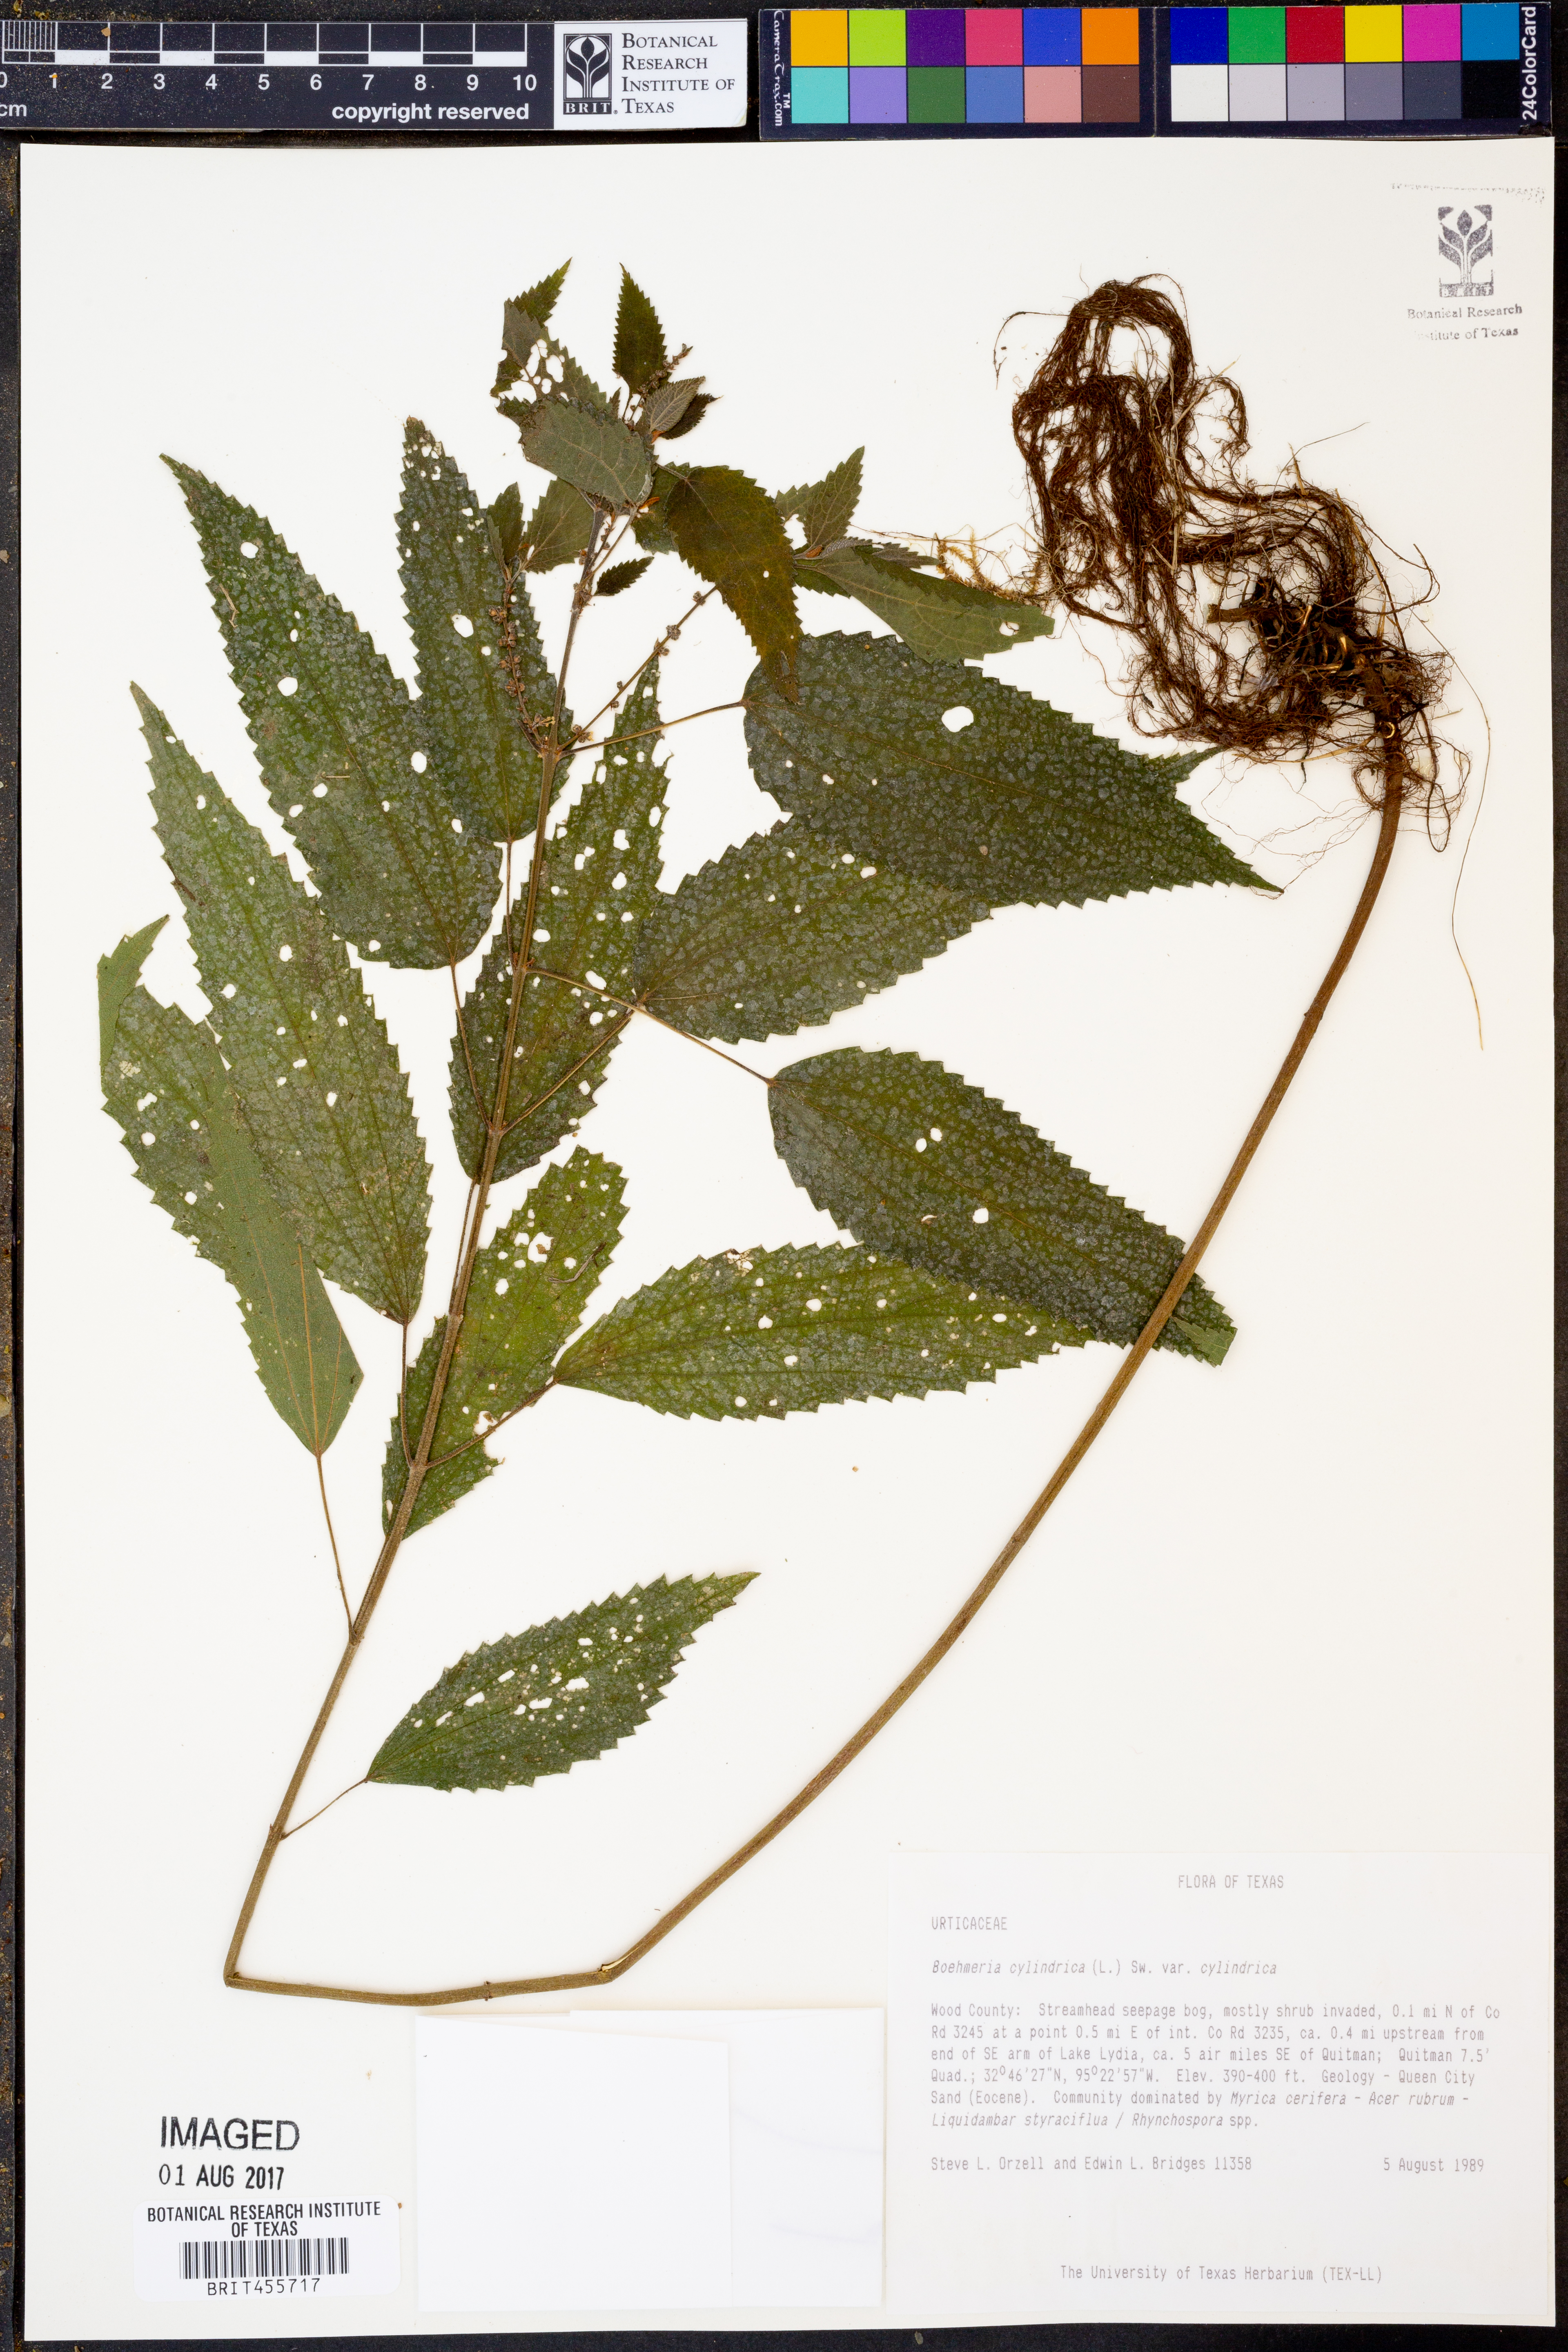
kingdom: Plantae
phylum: Tracheophyta
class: Magnoliopsida
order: Rosales
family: Urticaceae
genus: Boehmeria
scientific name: Boehmeria cylindrica
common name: Bog-hemp
